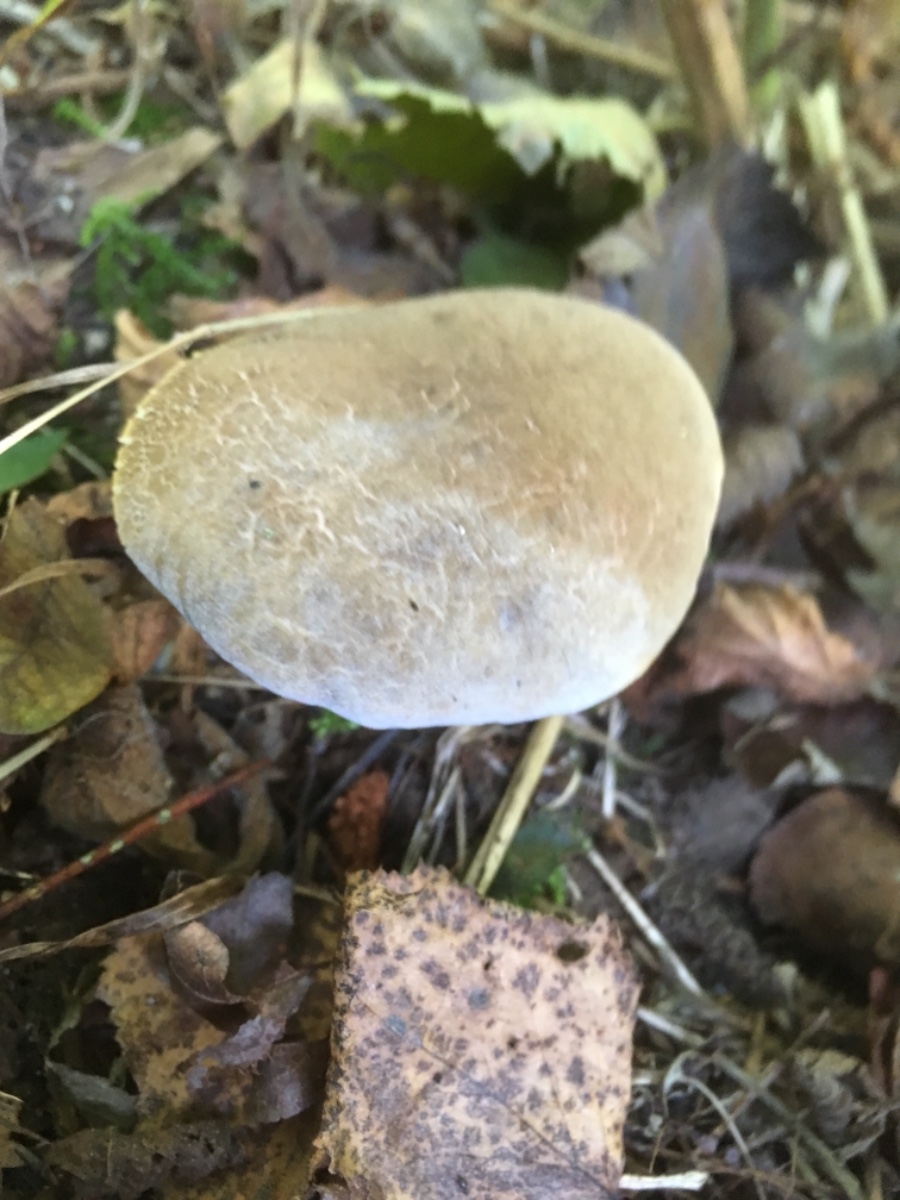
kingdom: Fungi
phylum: Basidiomycota
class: Agaricomycetes
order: Boletales
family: Boletaceae
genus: Xerocomellus
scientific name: Xerocomellus
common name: dværgrørhat
